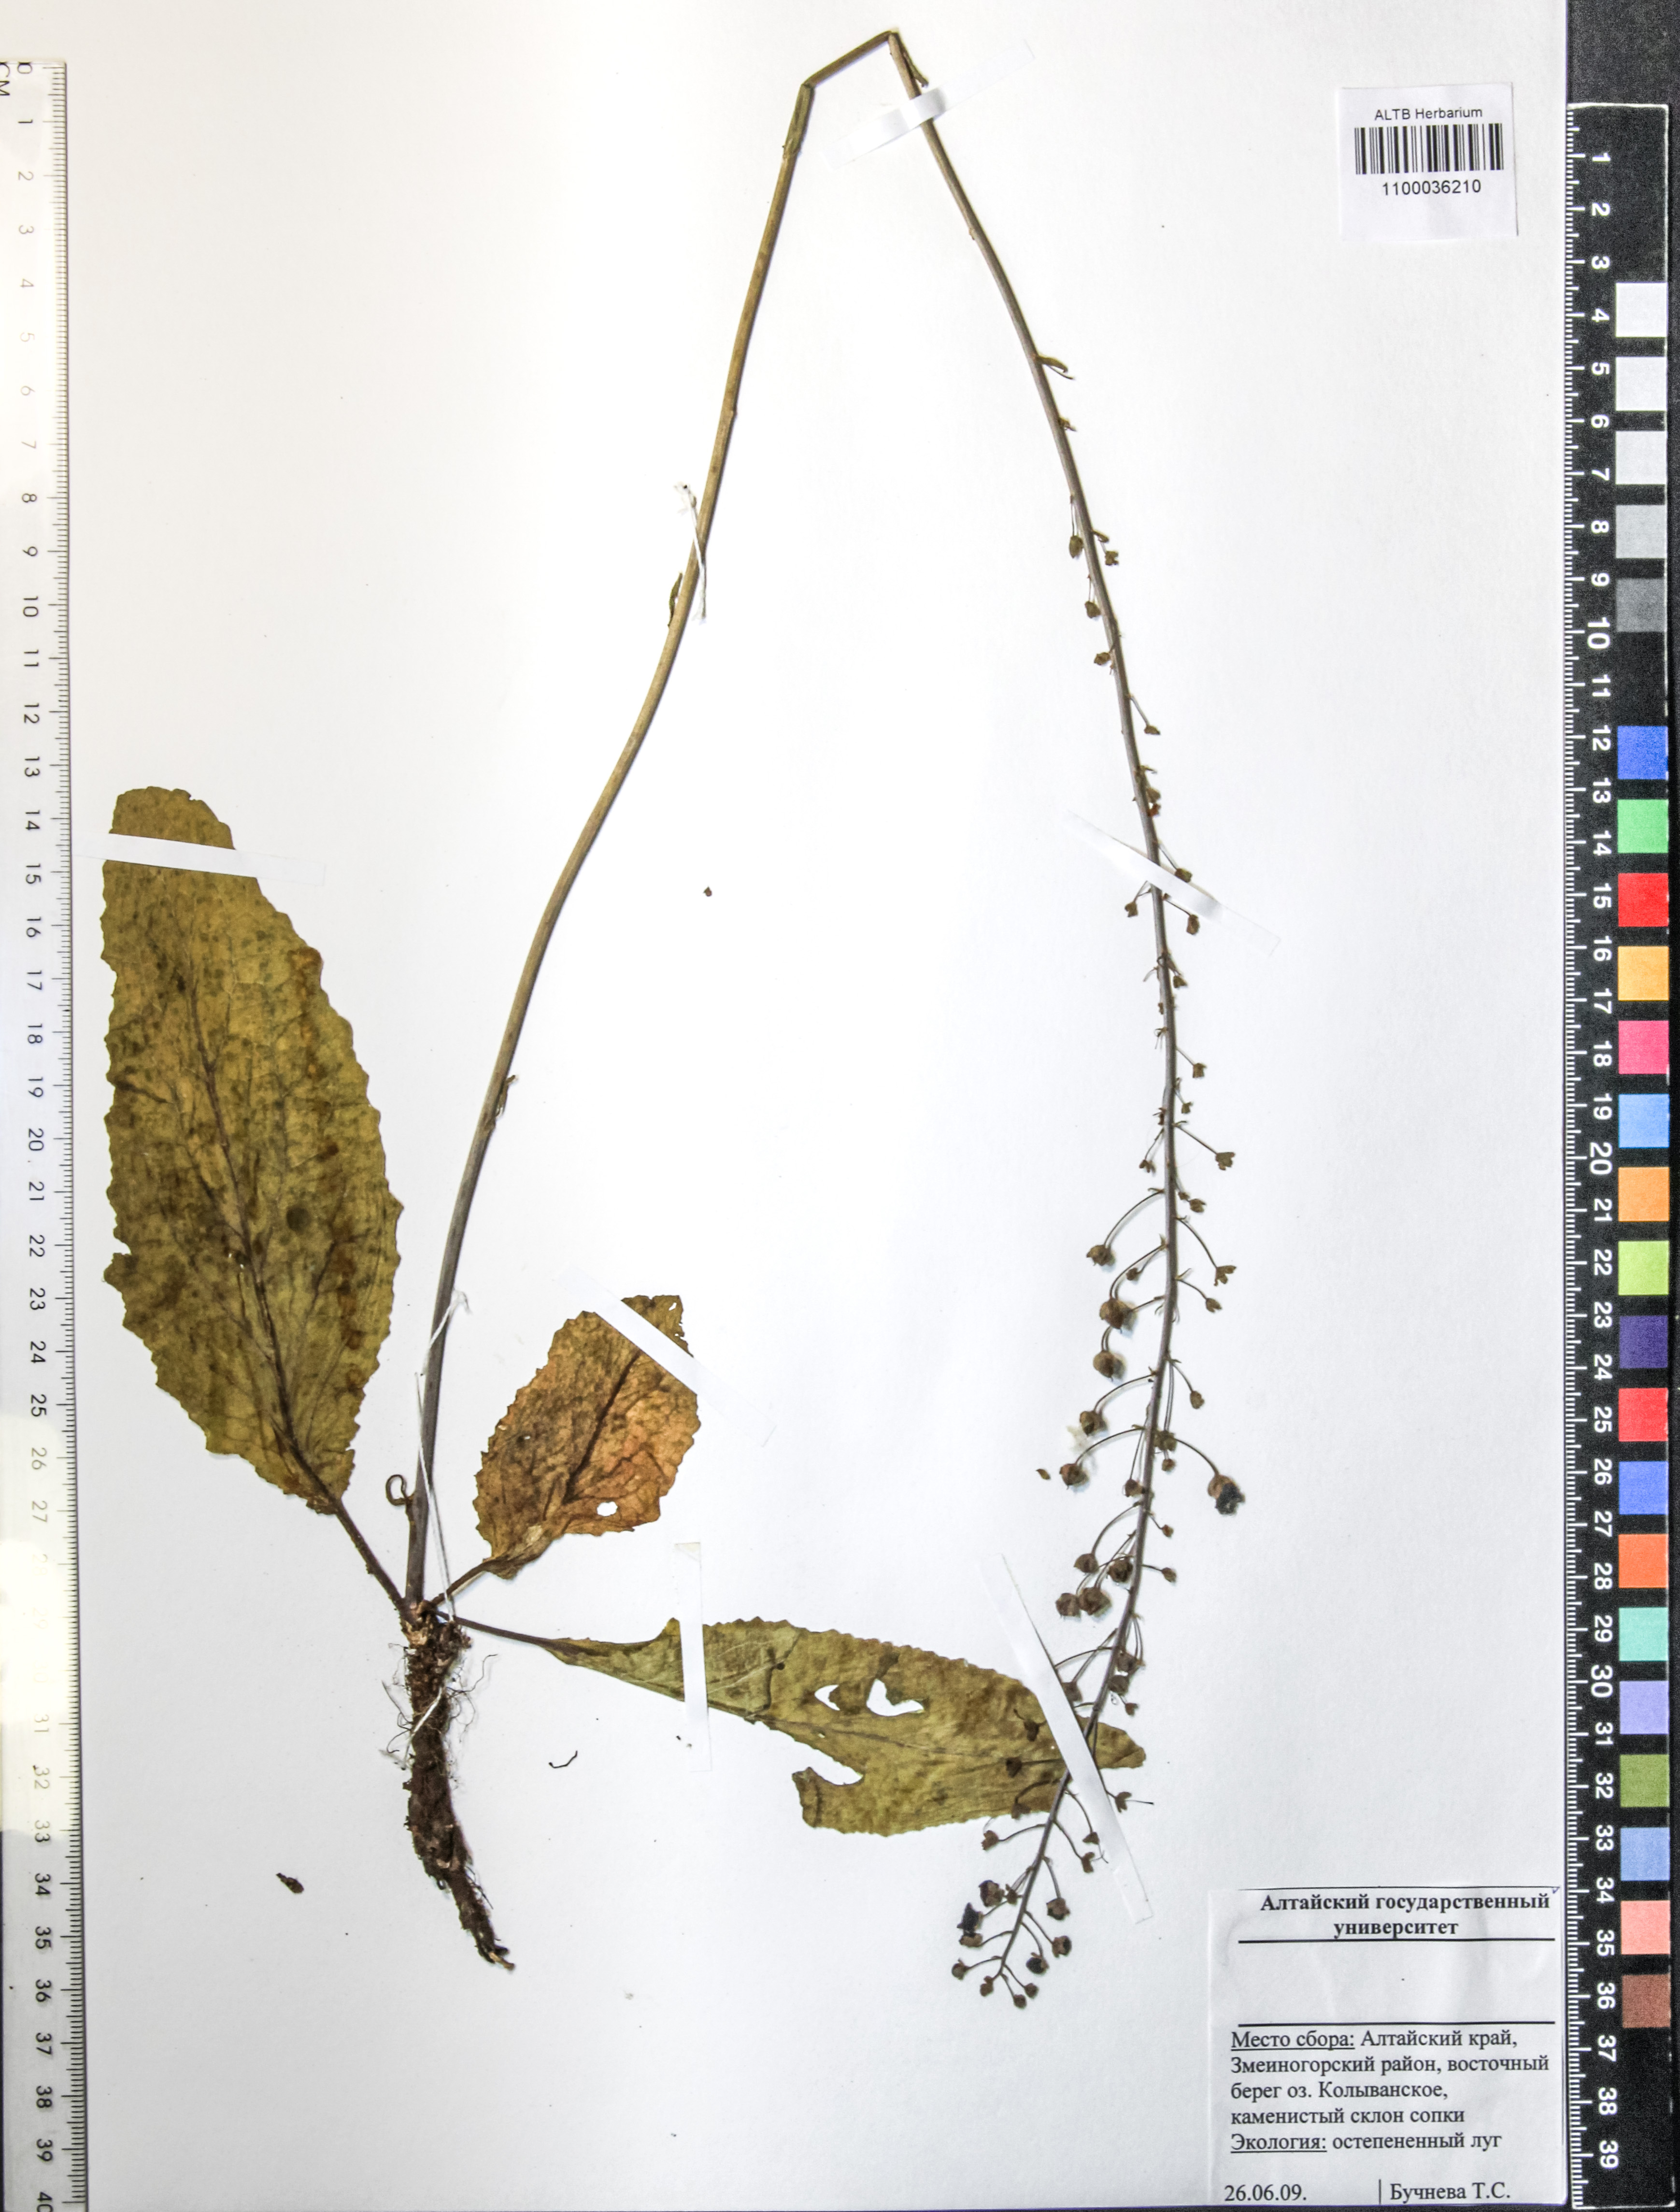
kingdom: Plantae
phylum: Tracheophyta
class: Magnoliopsida
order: Lamiales
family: Scrophulariaceae
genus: Verbascum
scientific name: Verbascum phoeniceum
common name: Purple mullein
